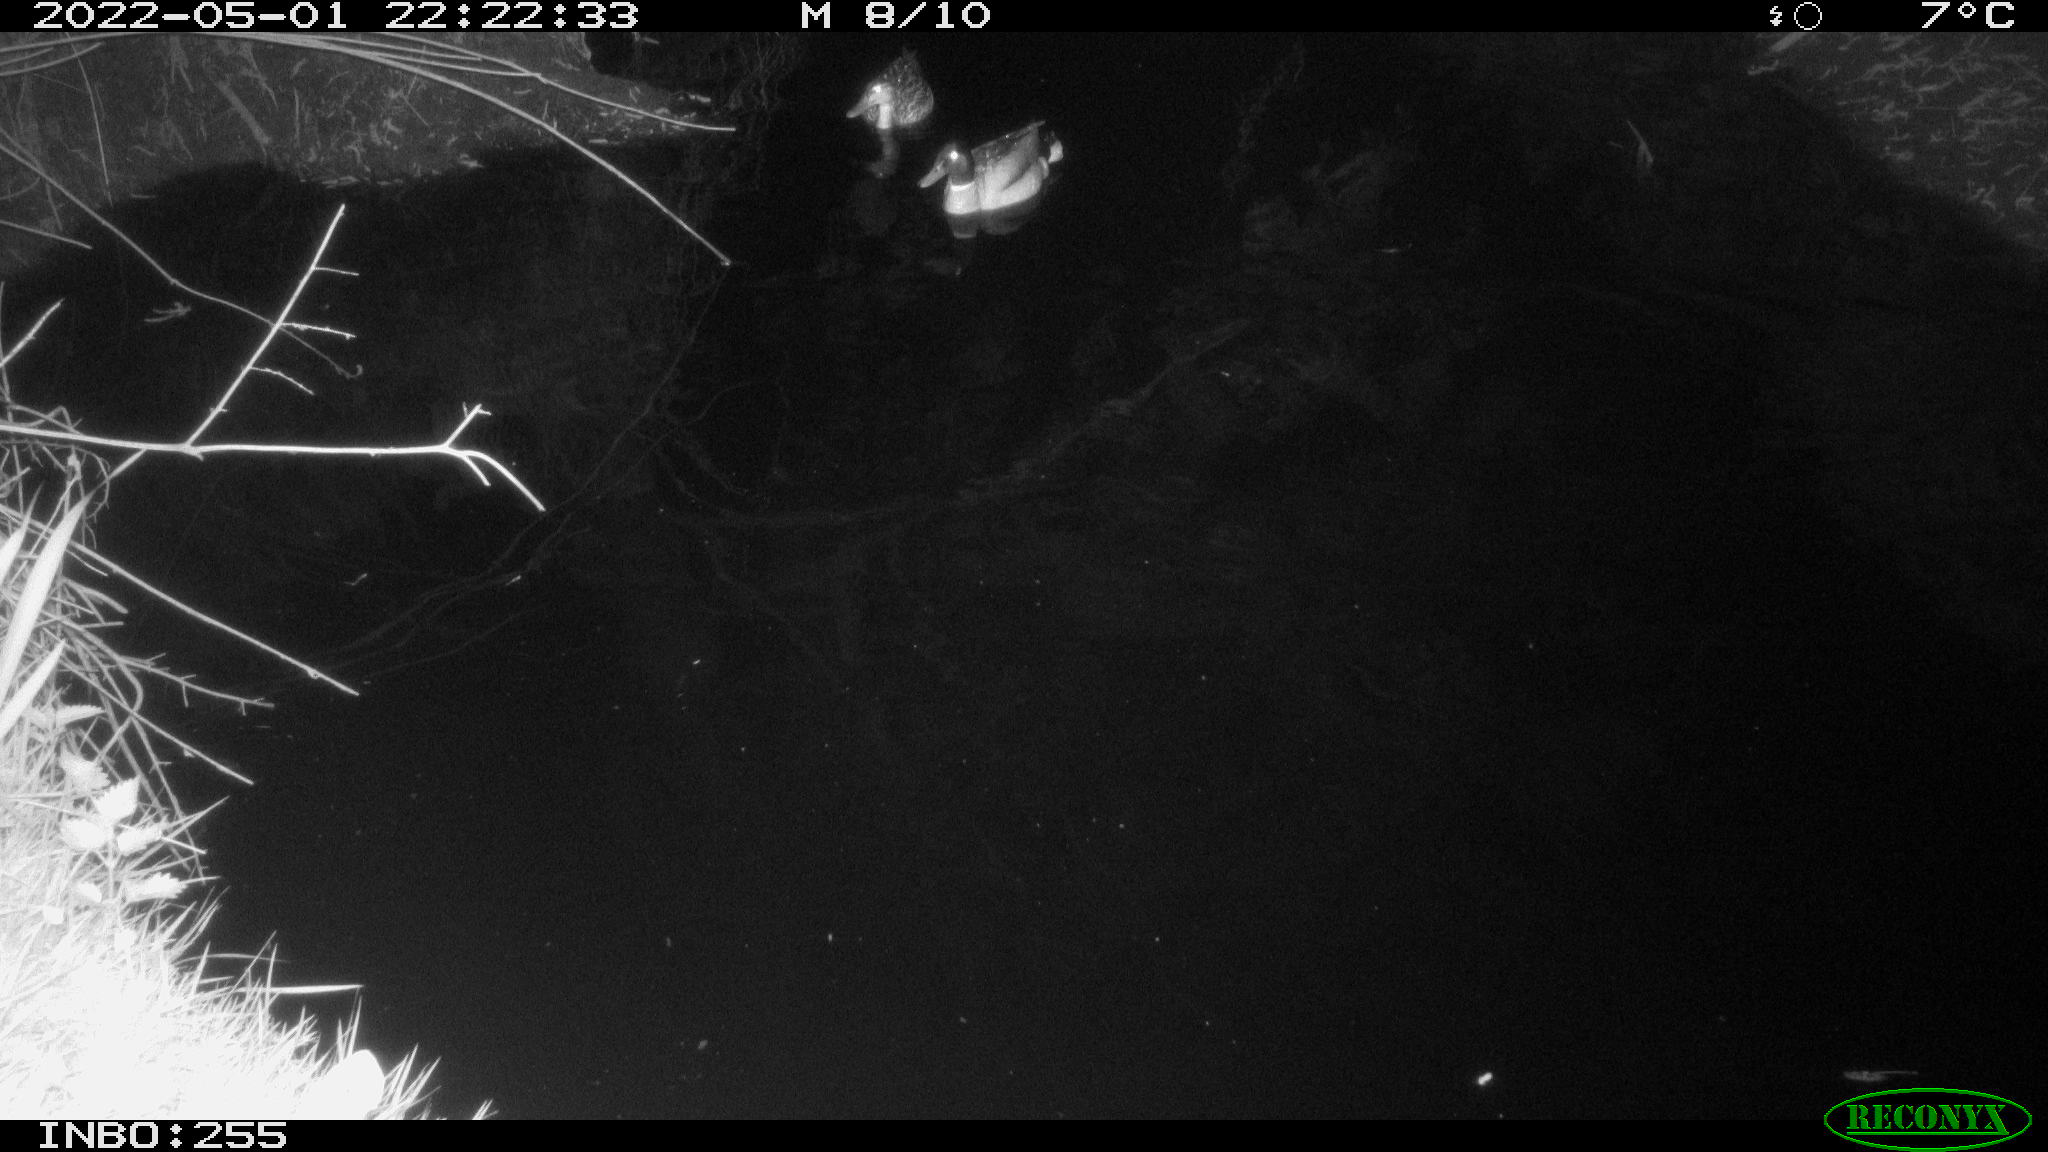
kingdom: Animalia
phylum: Chordata
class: Mammalia
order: Rodentia
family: Muridae
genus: Rattus
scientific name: Rattus norvegicus
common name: Brown rat
